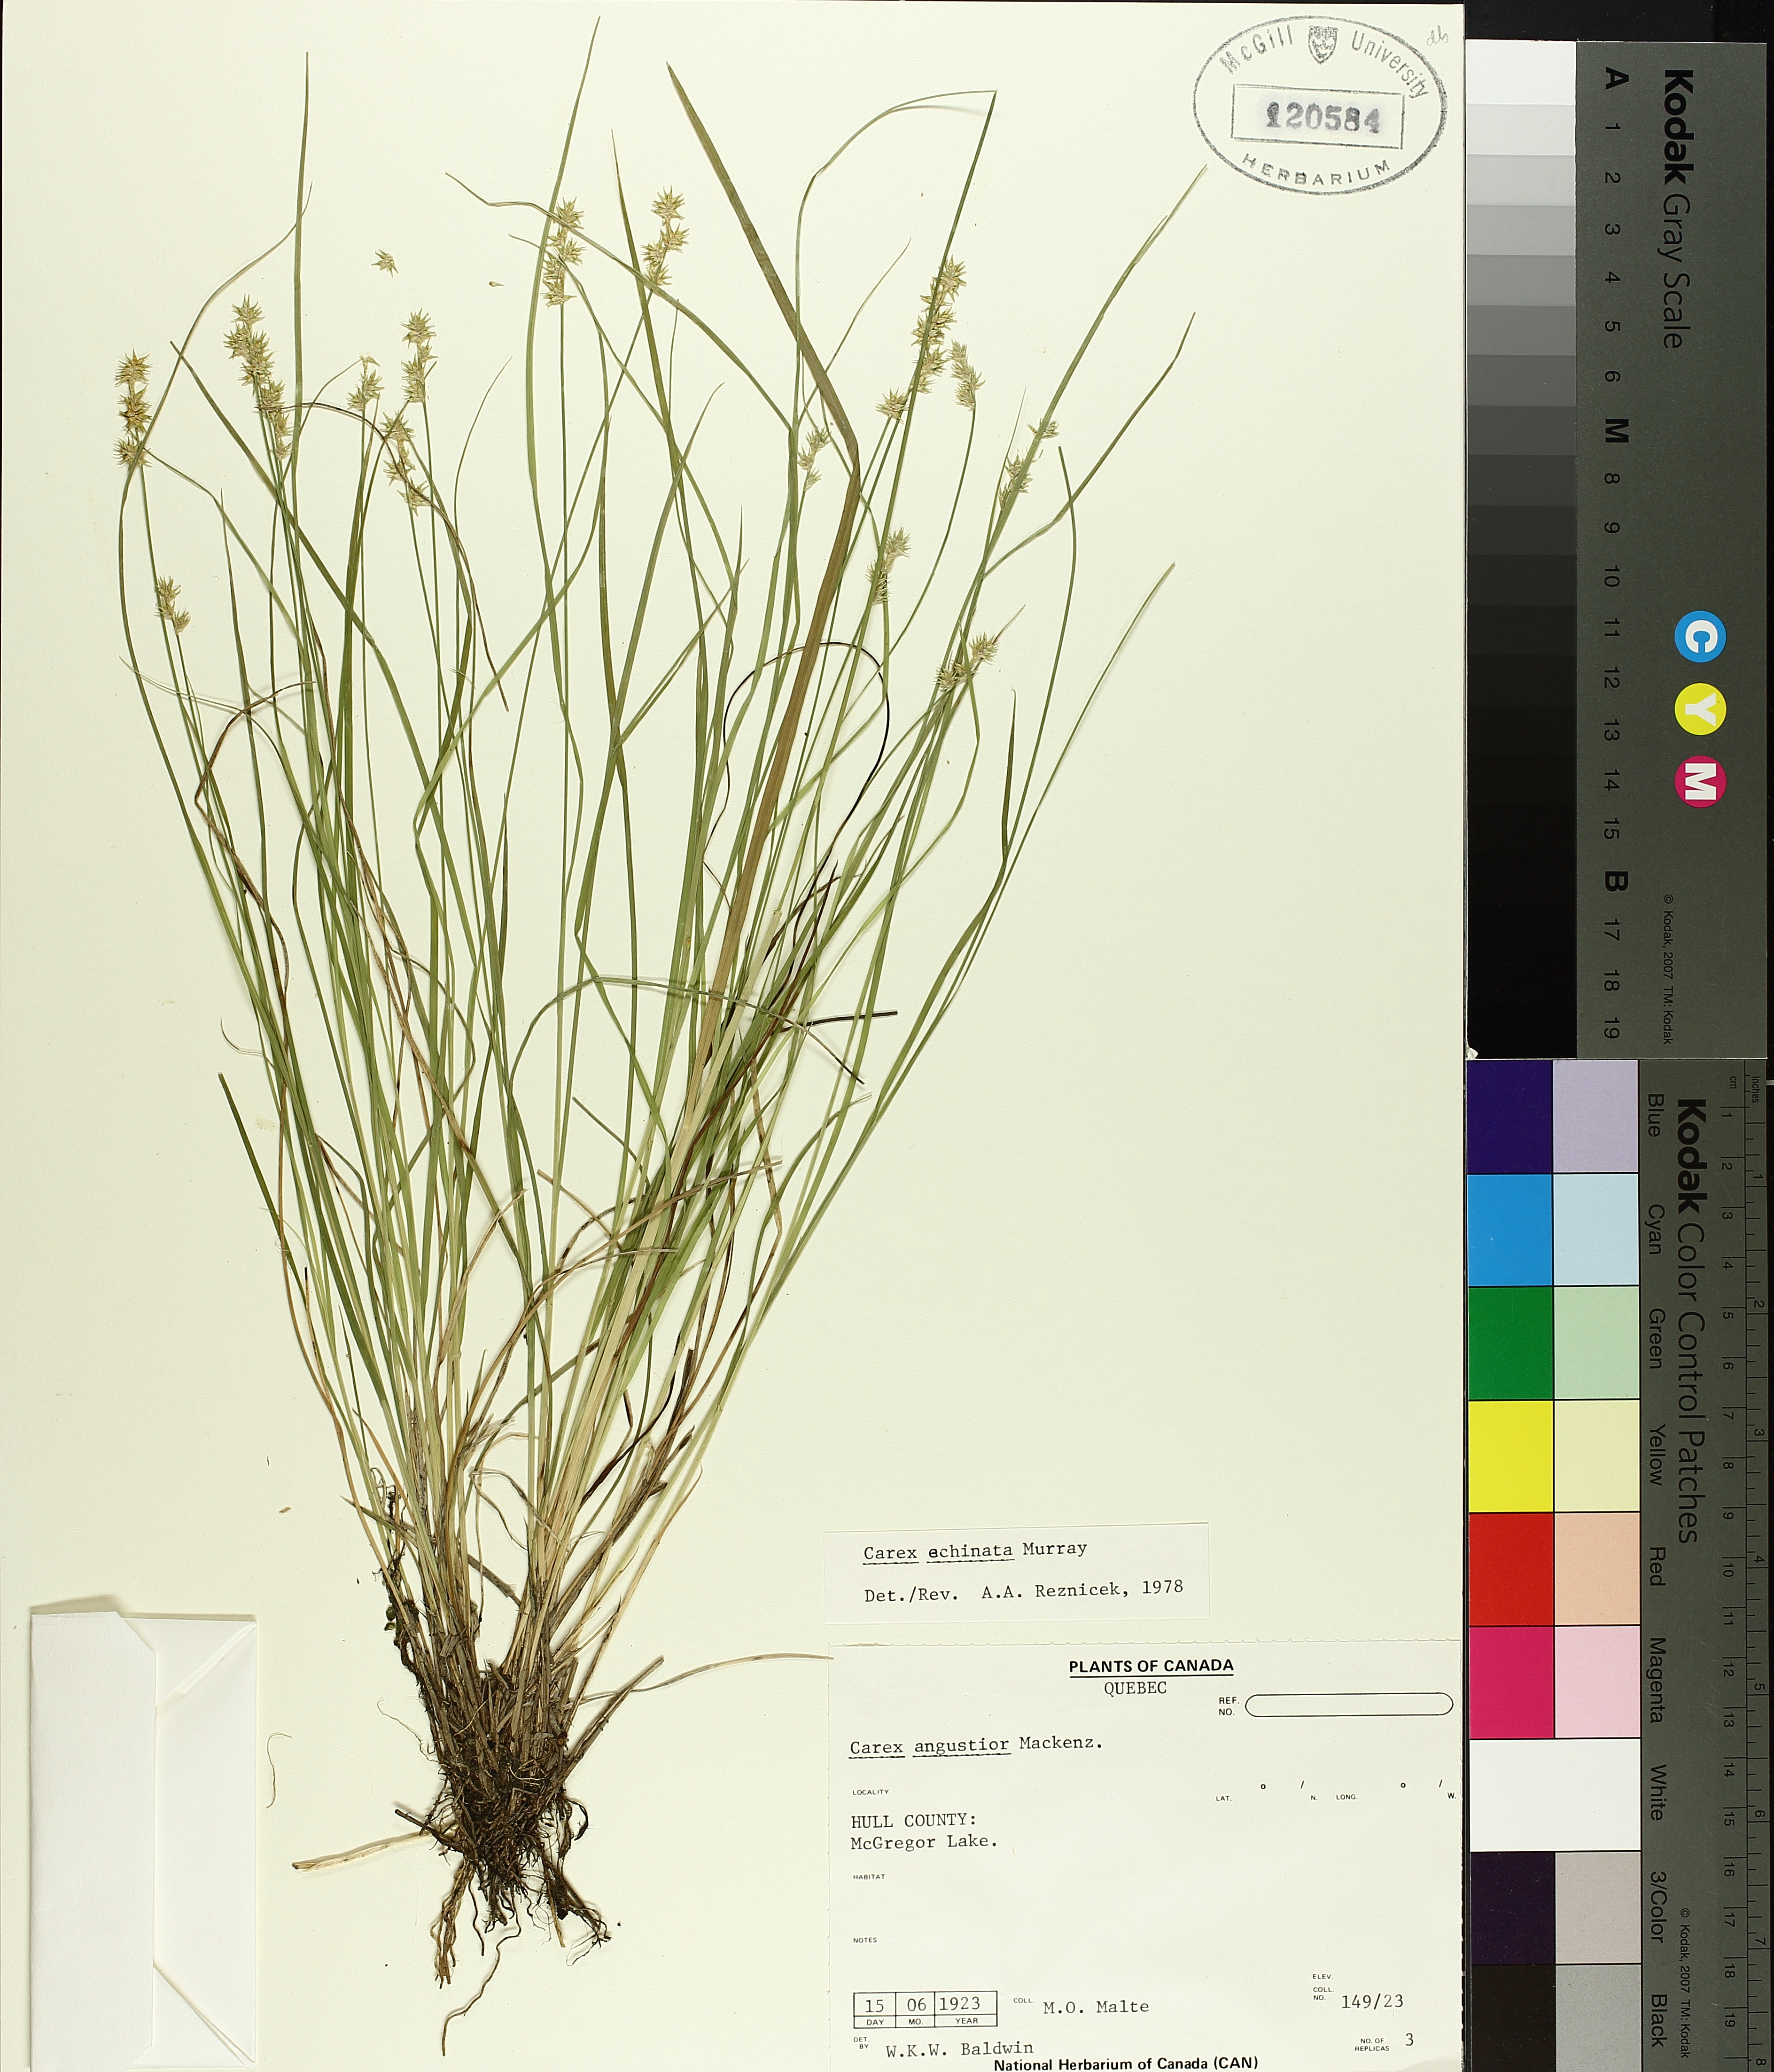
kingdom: Plantae
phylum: Tracheophyta
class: Liliopsida
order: Poales
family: Cyperaceae
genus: Carex
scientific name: Carex echinata
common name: Star sedge
